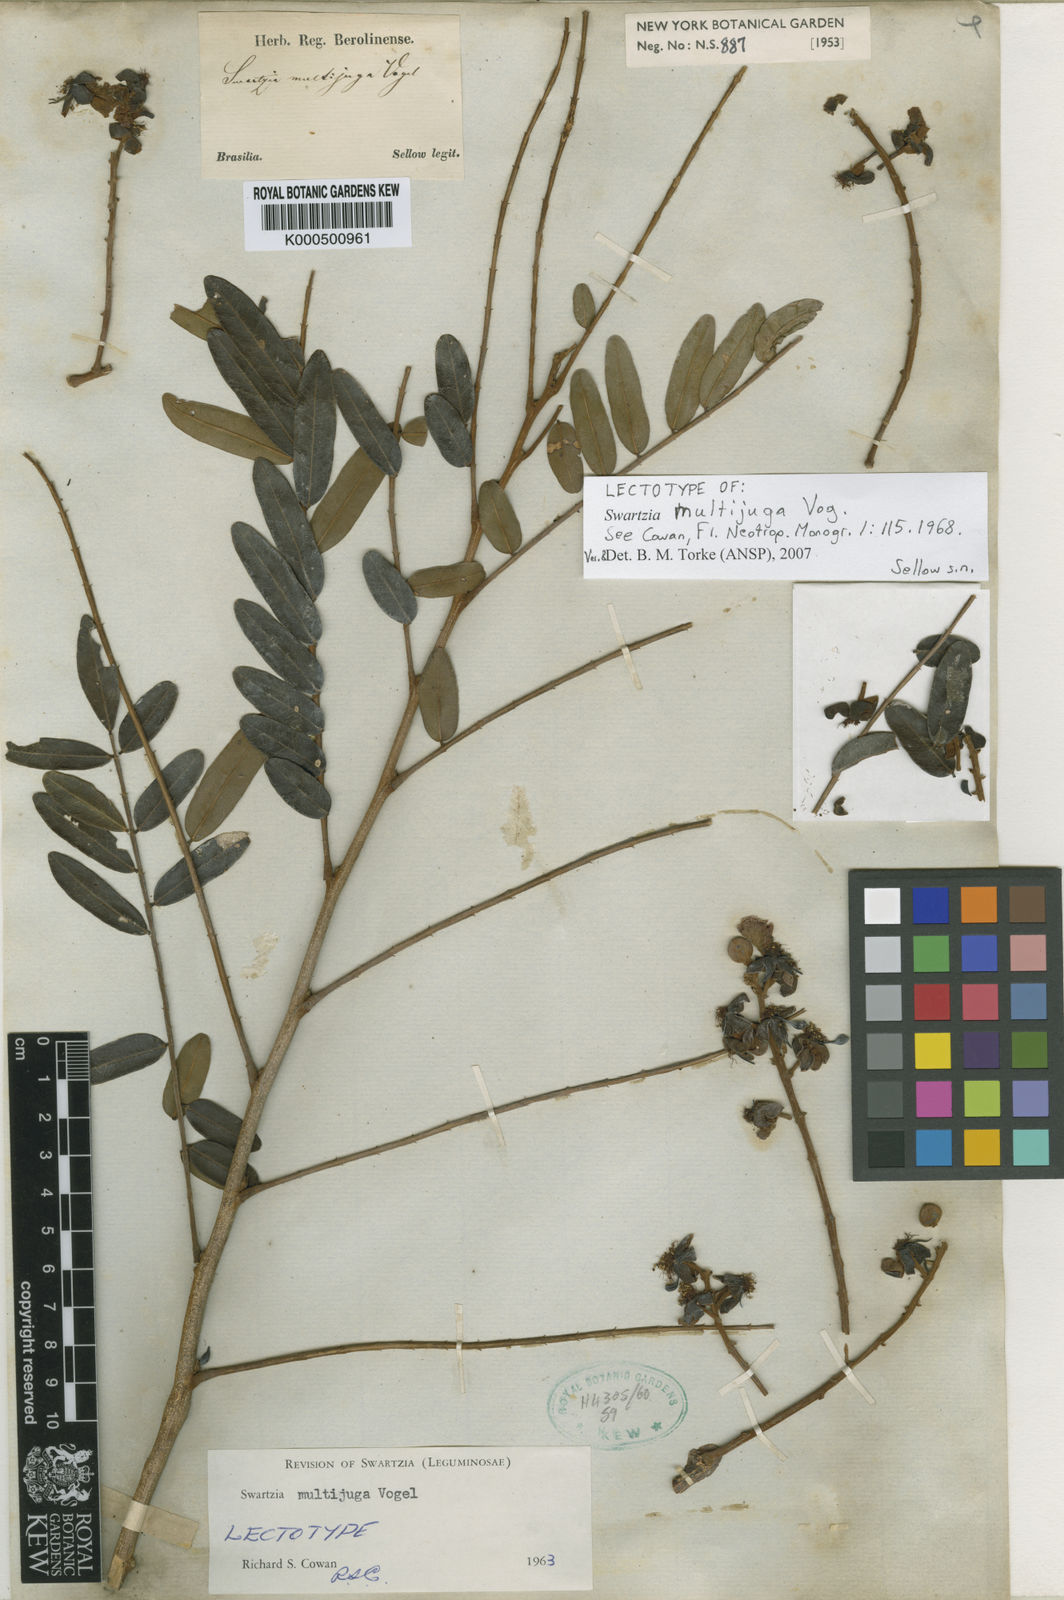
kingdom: Plantae
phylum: Tracheophyta
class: Magnoliopsida
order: Fabales
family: Fabaceae
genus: Swartzia
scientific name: Swartzia multijuga
